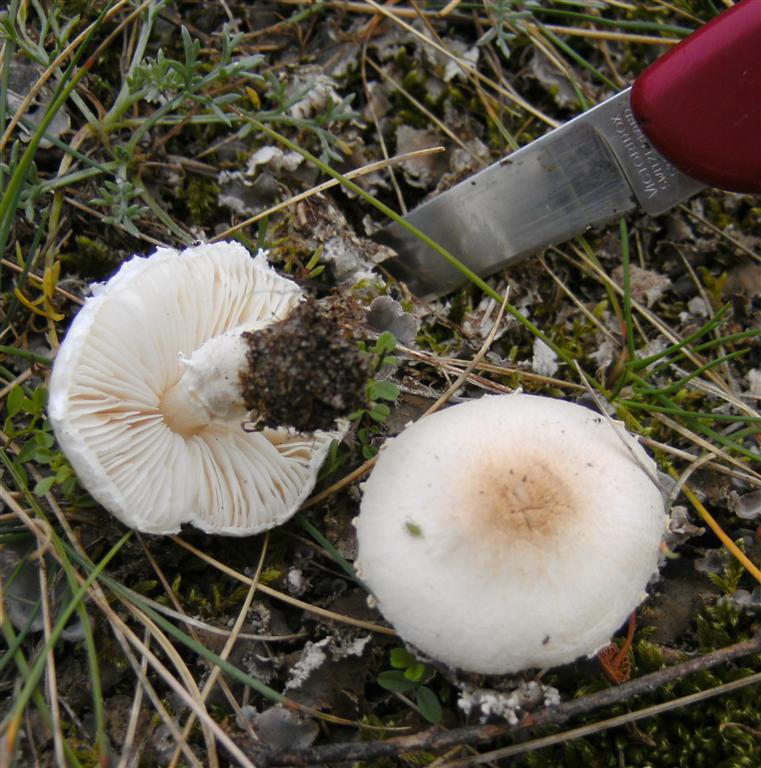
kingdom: Fungi
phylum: Basidiomycota
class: Agaricomycetes
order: Agaricales
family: Agaricaceae
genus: Lepiota
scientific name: Lepiota erminea
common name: hvid parasolhat
